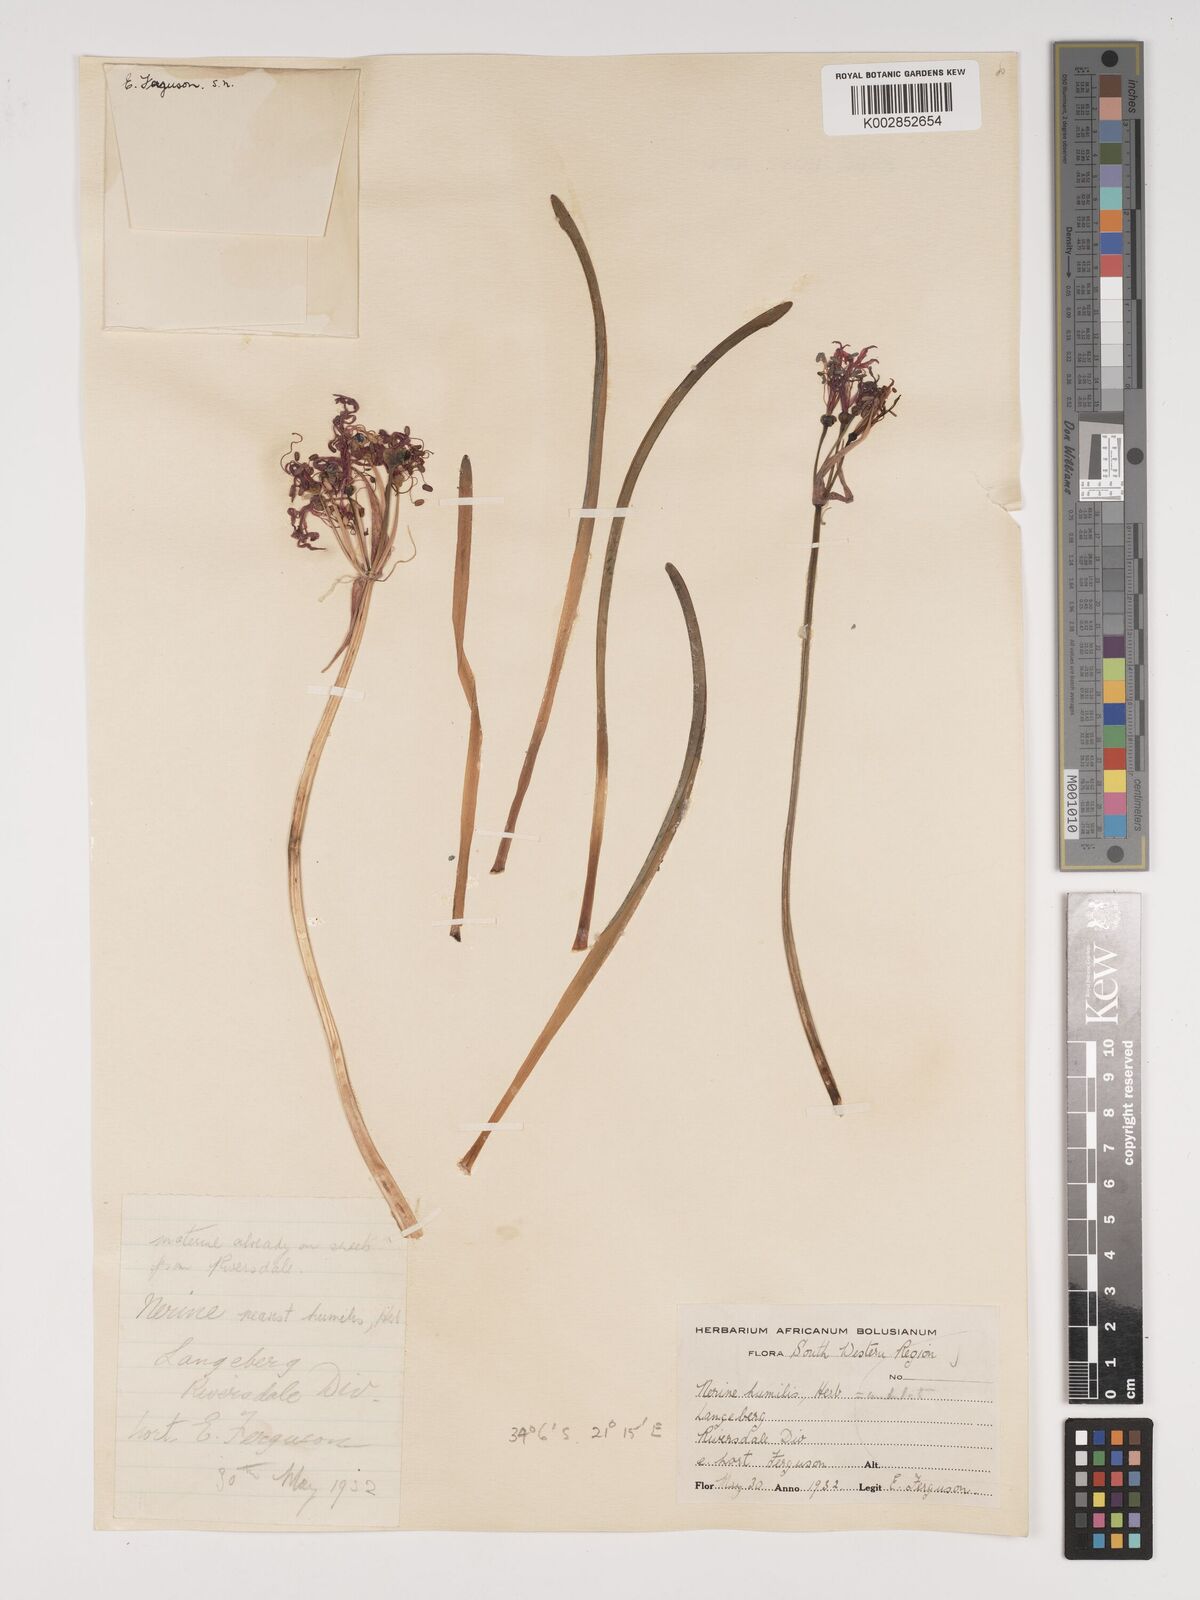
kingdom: Plantae
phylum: Tracheophyta
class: Liliopsida
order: Asparagales
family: Amaryllidaceae
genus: Nerine
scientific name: Nerine humilis
